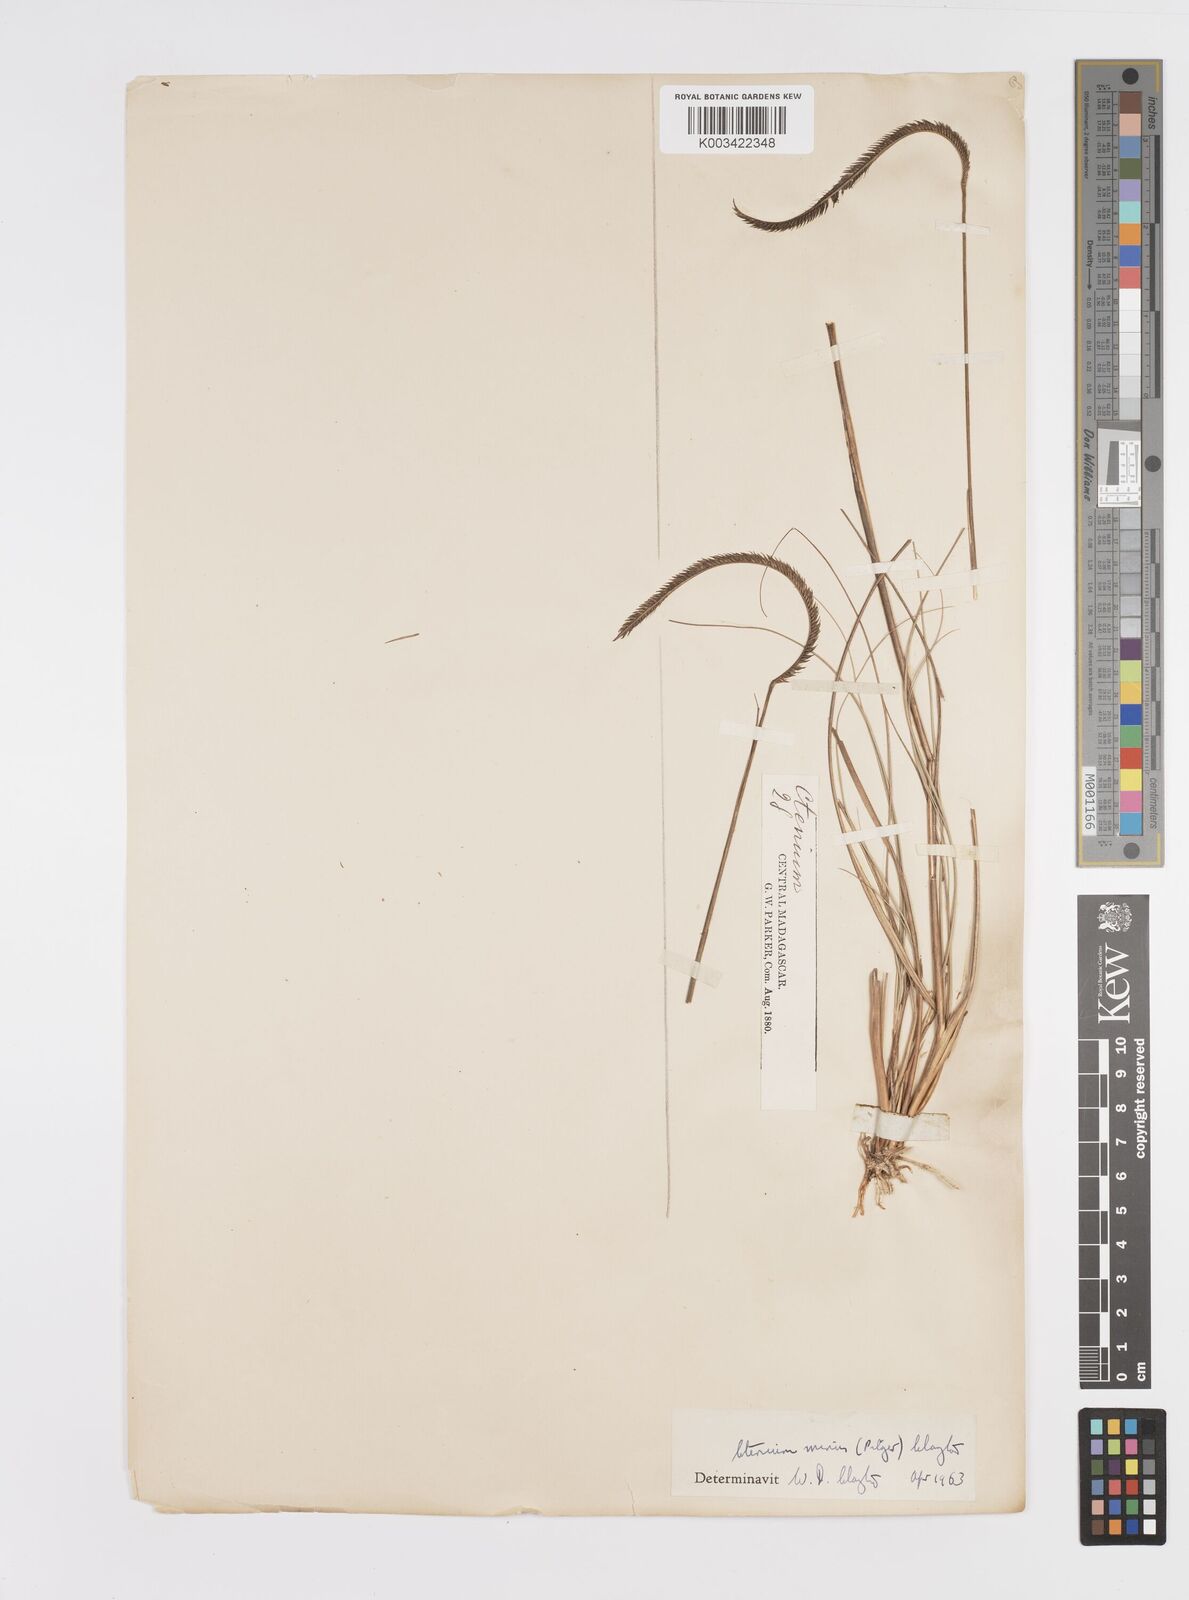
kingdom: Plantae
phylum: Tracheophyta
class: Liliopsida
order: Poales
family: Poaceae
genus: Ctenium
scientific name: Ctenium concinnum
